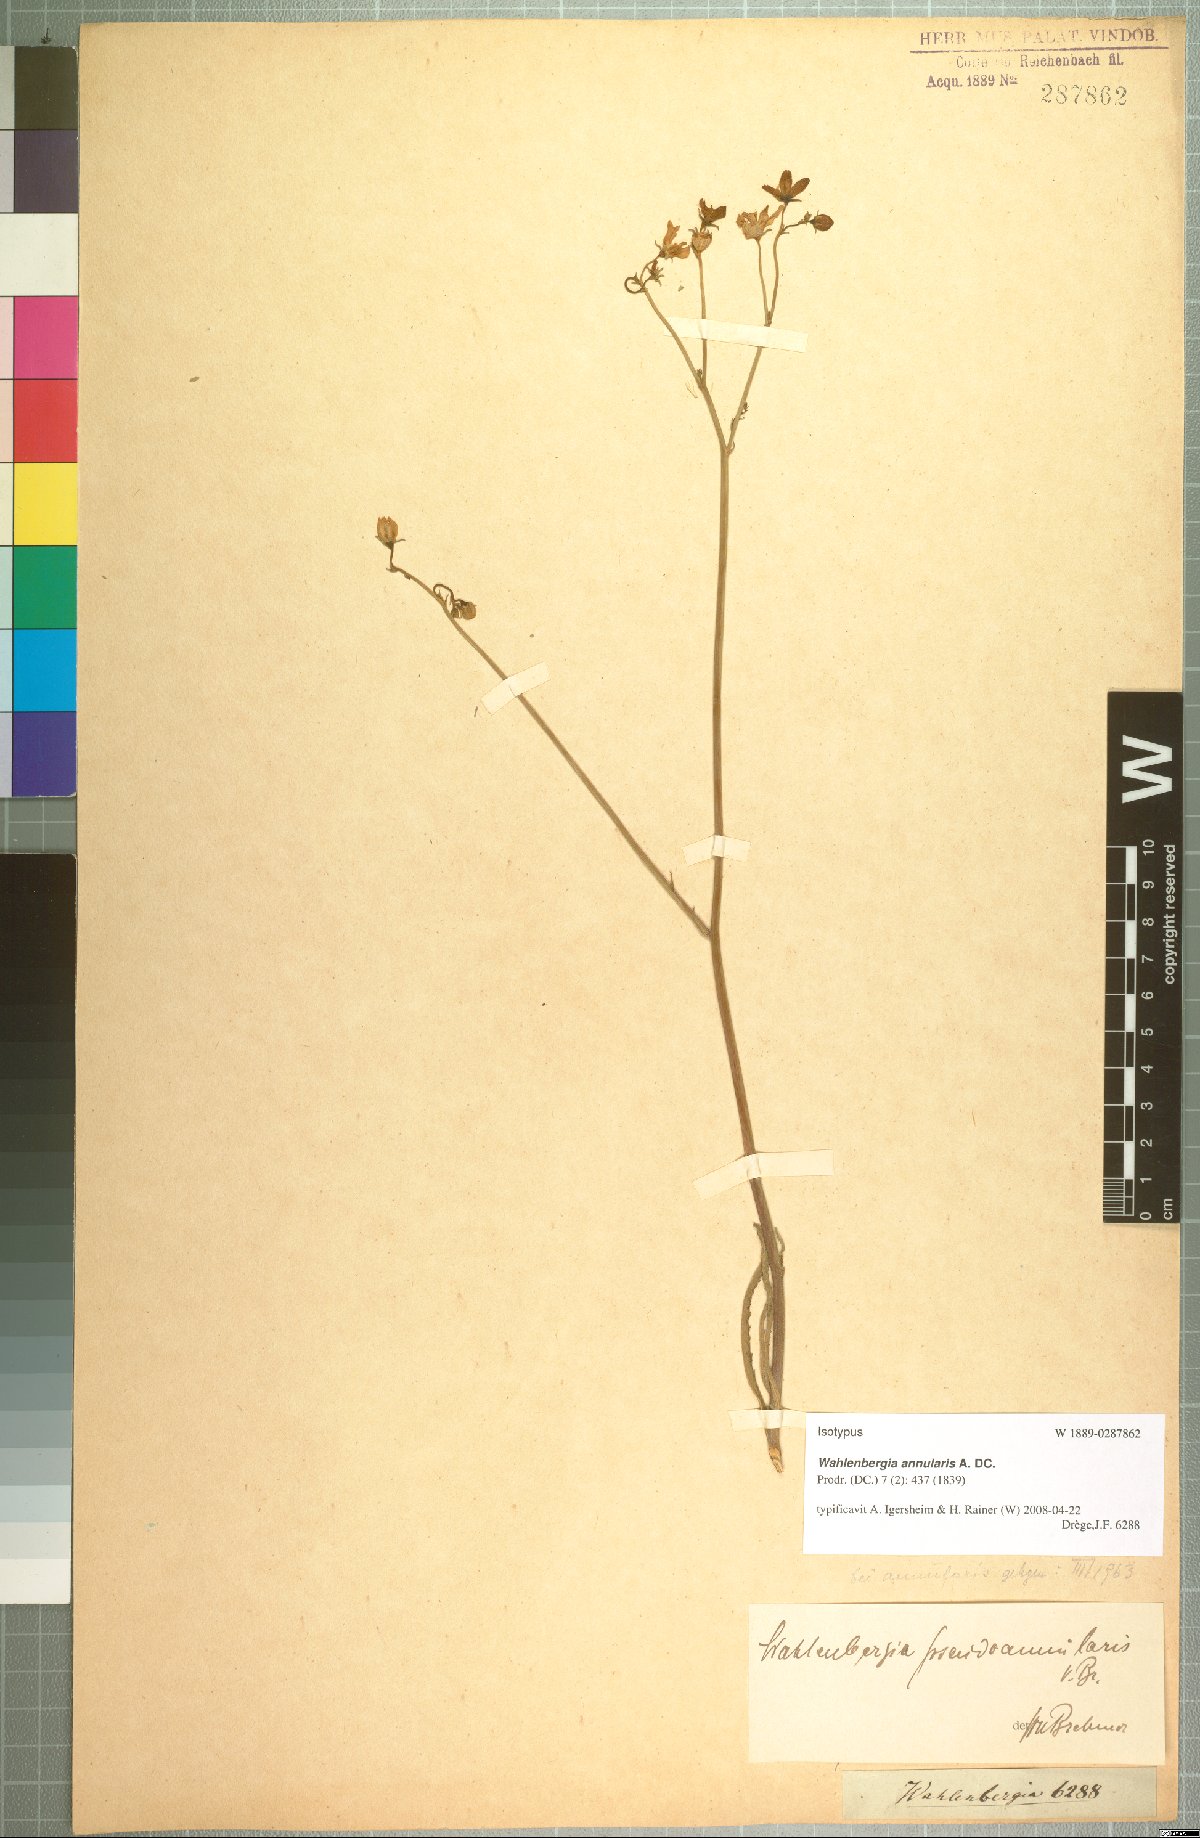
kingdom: Plantae
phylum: Tracheophyta
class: Magnoliopsida
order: Asterales
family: Campanulaceae
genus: Wahlenbergia
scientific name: Wahlenbergia annularis
